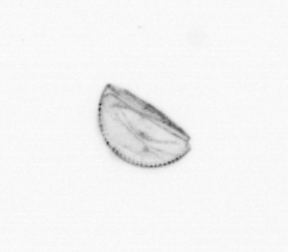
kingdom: Chromista
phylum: Ochrophyta
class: Bacillariophyceae
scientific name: Bacillariophyceae
